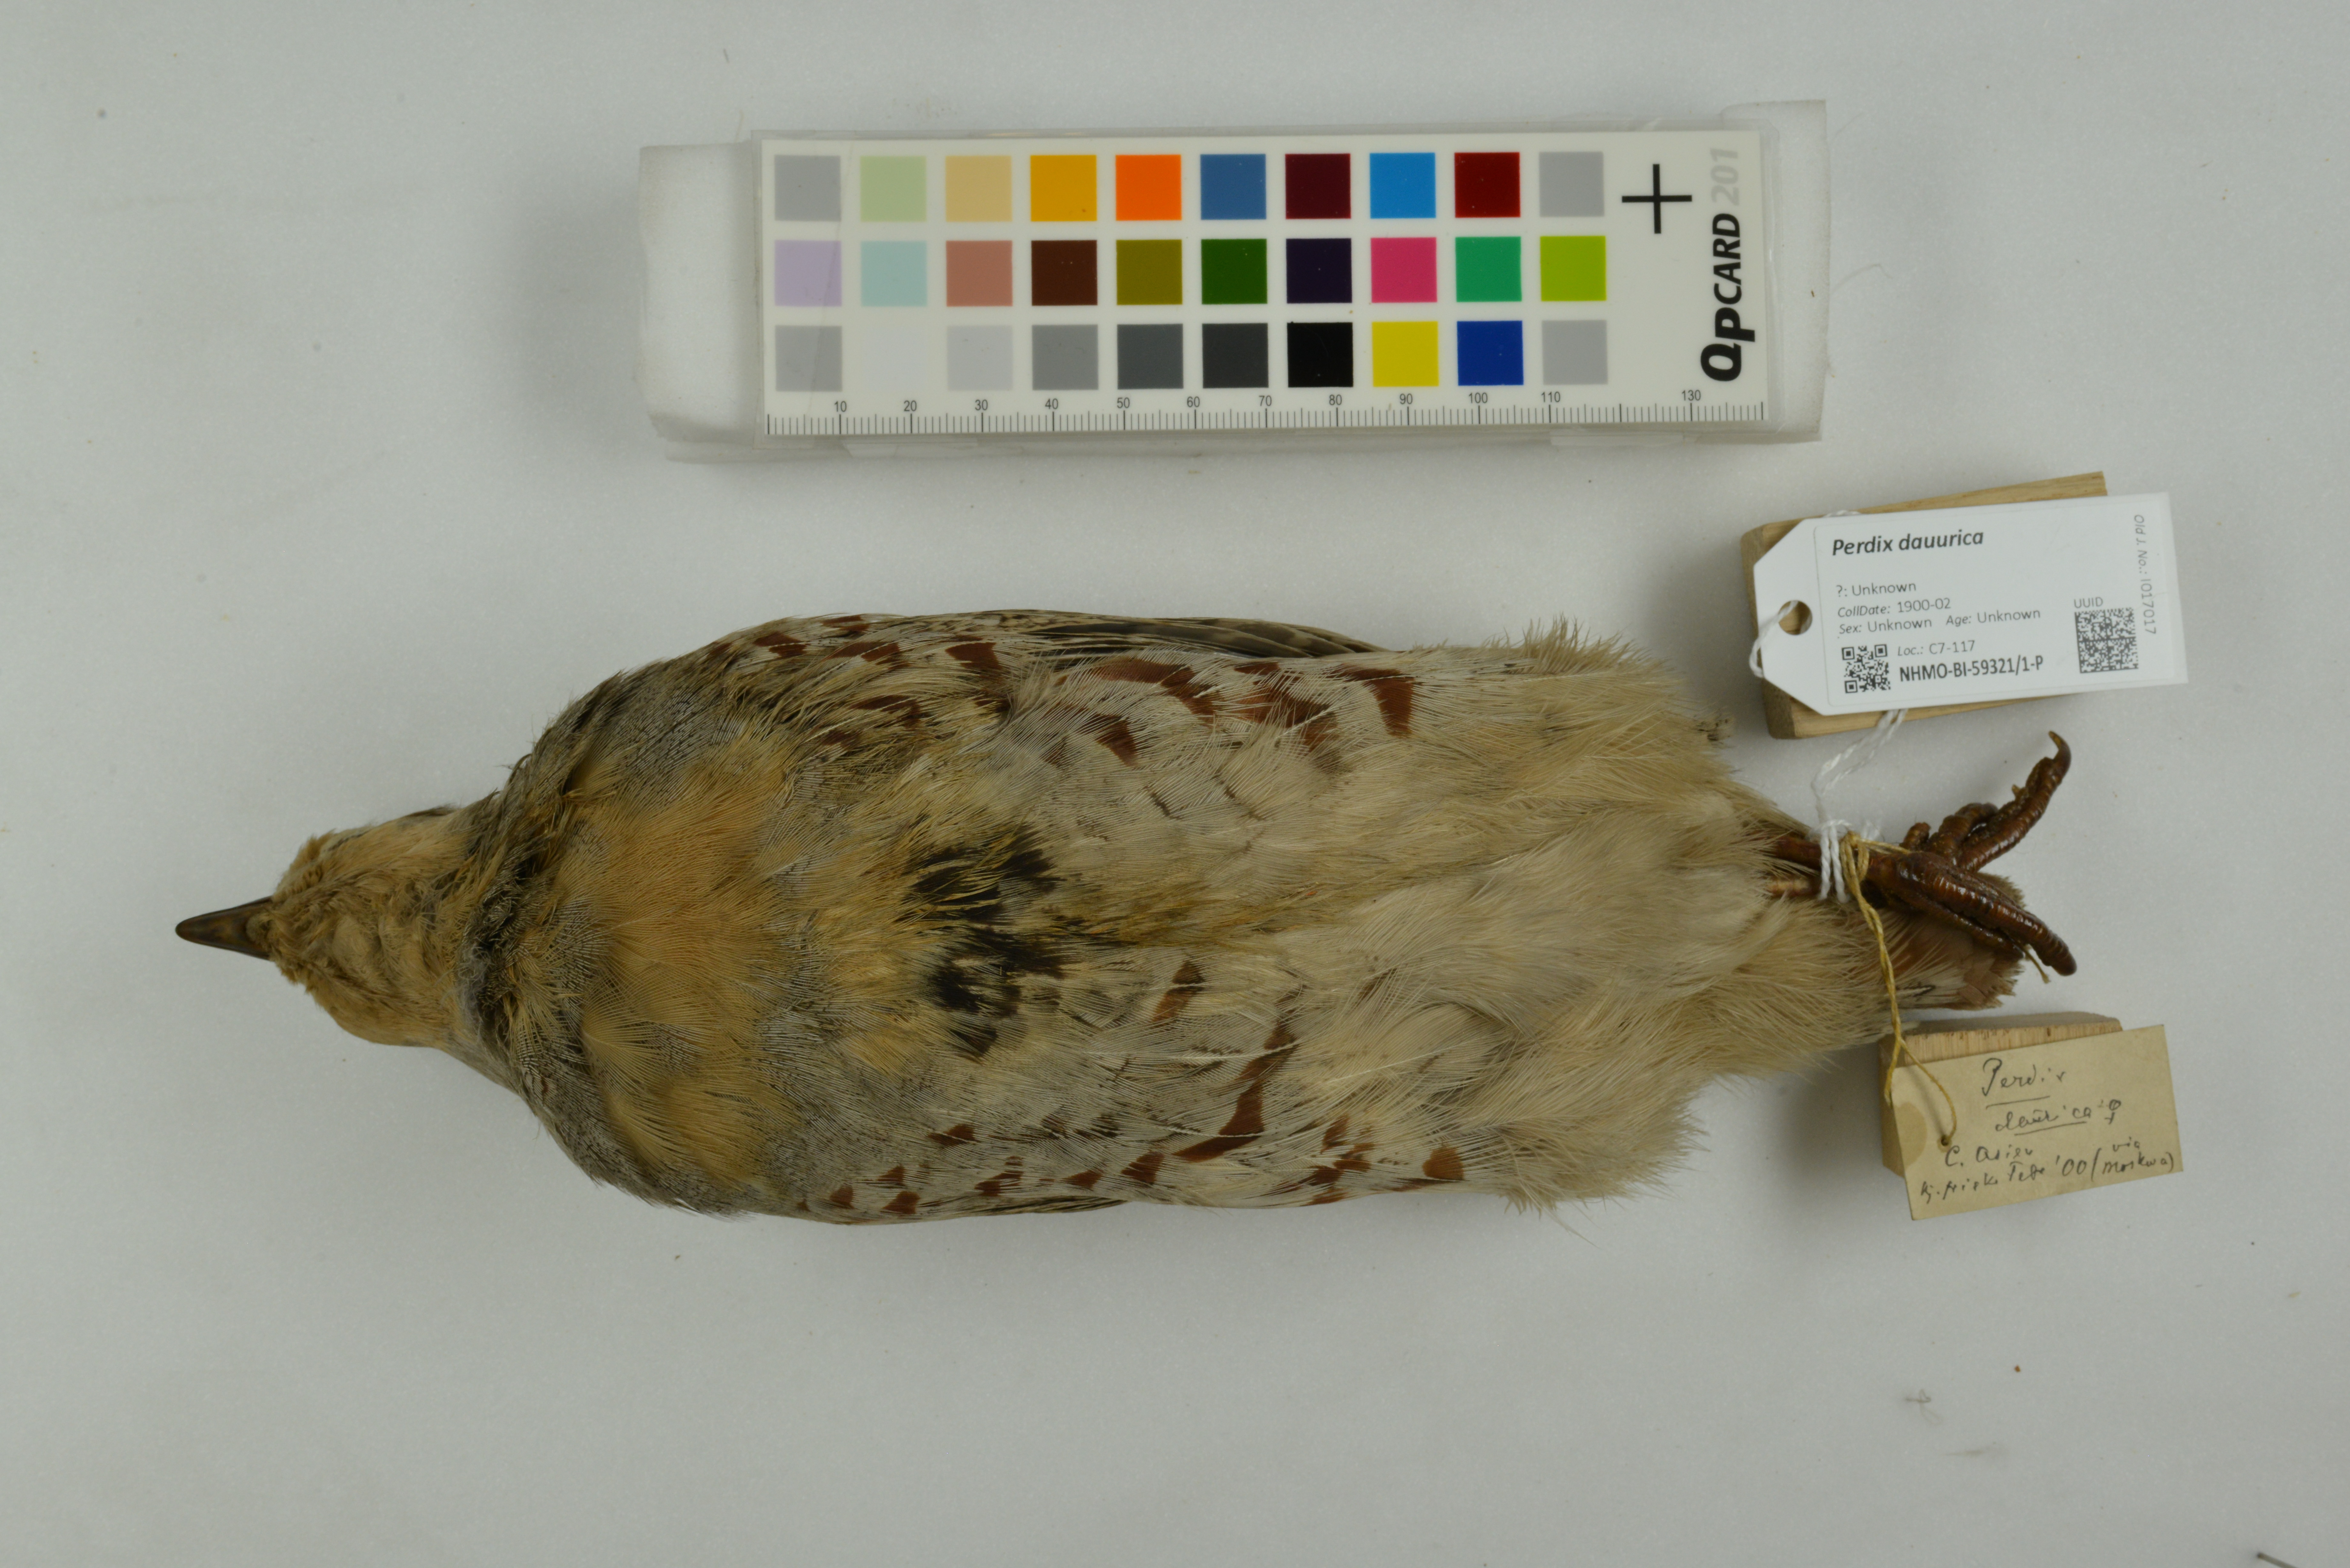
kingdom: Animalia
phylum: Chordata
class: Aves
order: Galliformes
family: Phasianidae
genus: Perdix
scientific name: Perdix dauurica
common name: Daurian partridge
